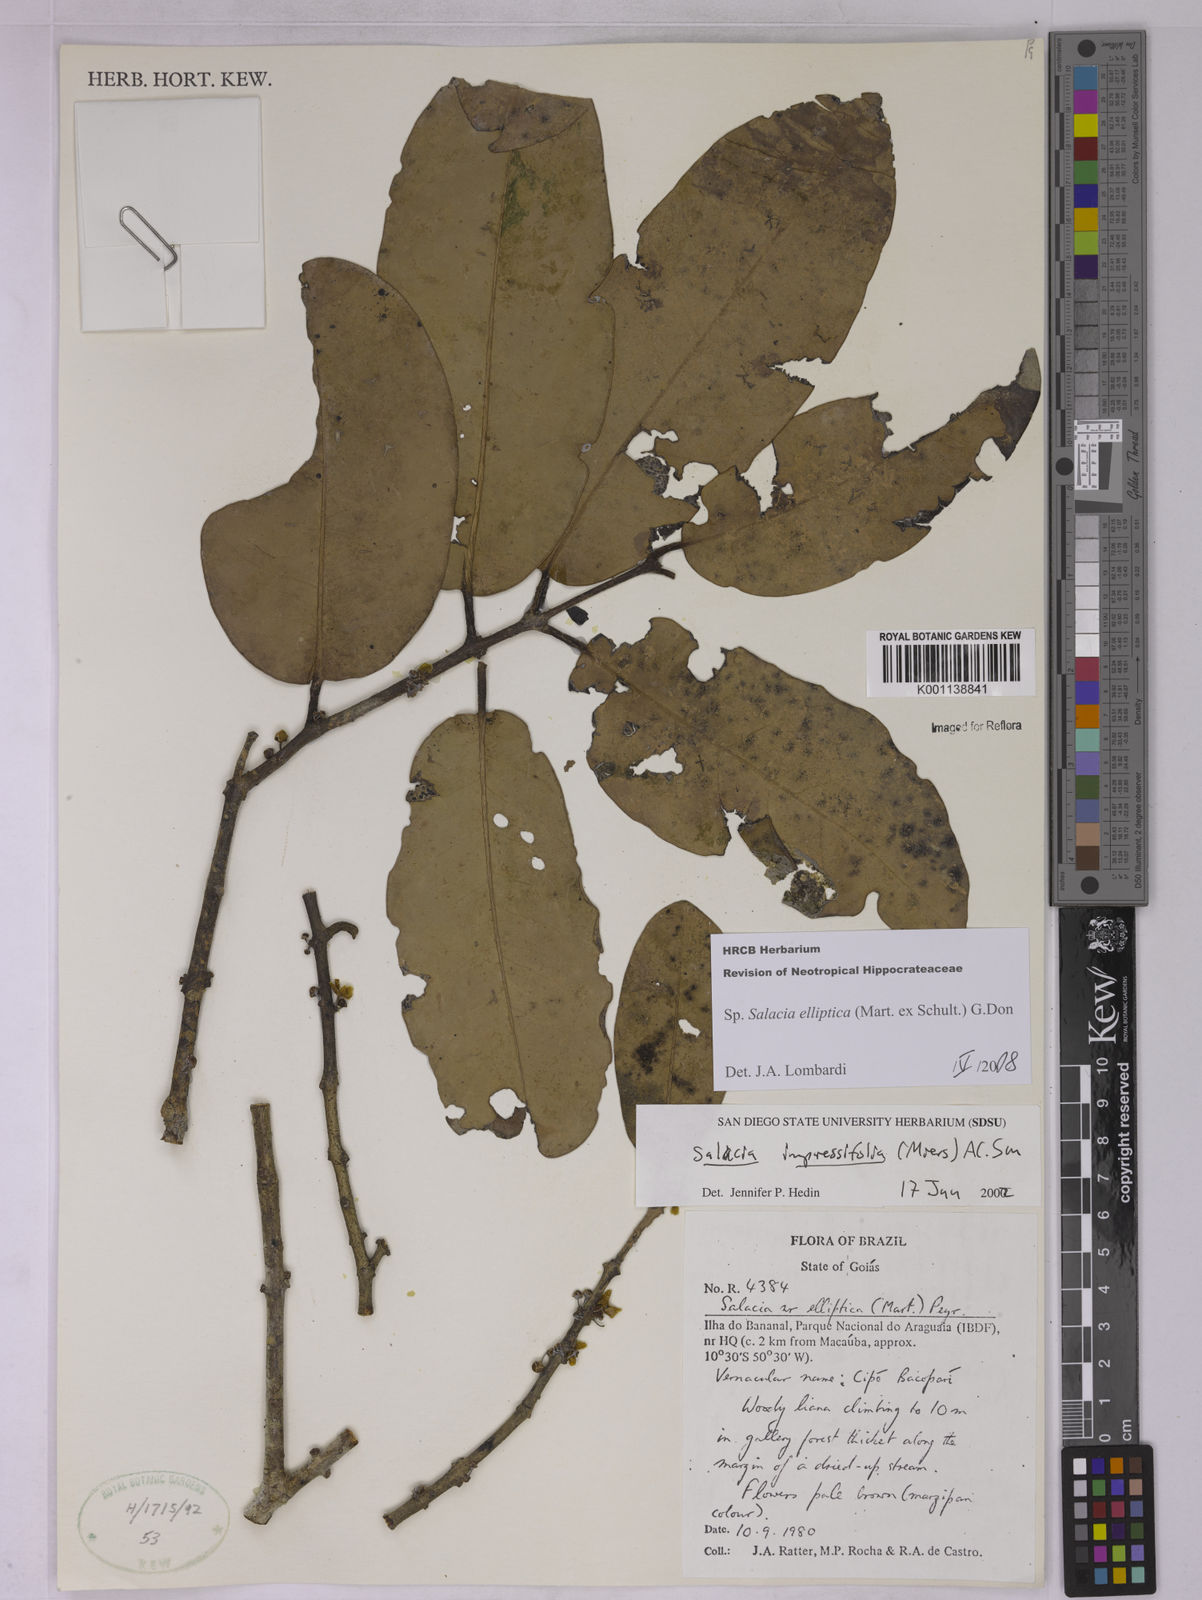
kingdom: Plantae
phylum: Tracheophyta
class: Magnoliopsida
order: Celastrales
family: Celastraceae
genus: Salacia
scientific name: Salacia elliptica
